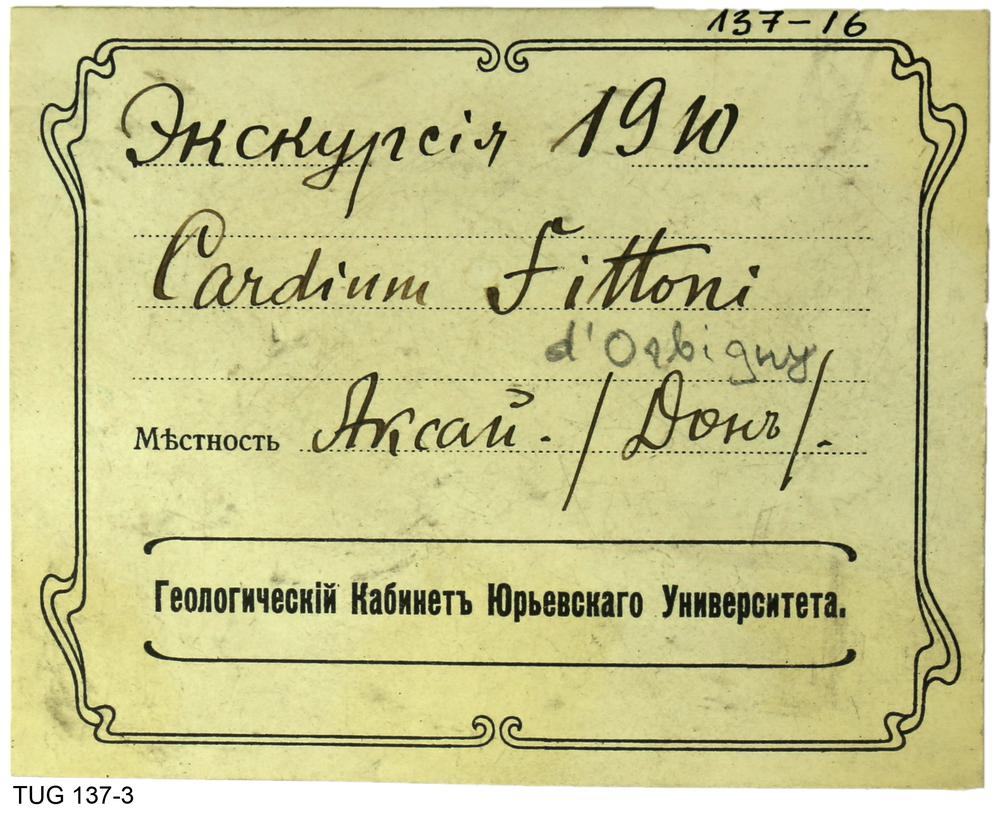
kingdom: Animalia
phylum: Mollusca
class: Bivalvia
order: Cardiida
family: Cardiidae
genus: Plicatiformes
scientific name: Plicatiformes fittoni
